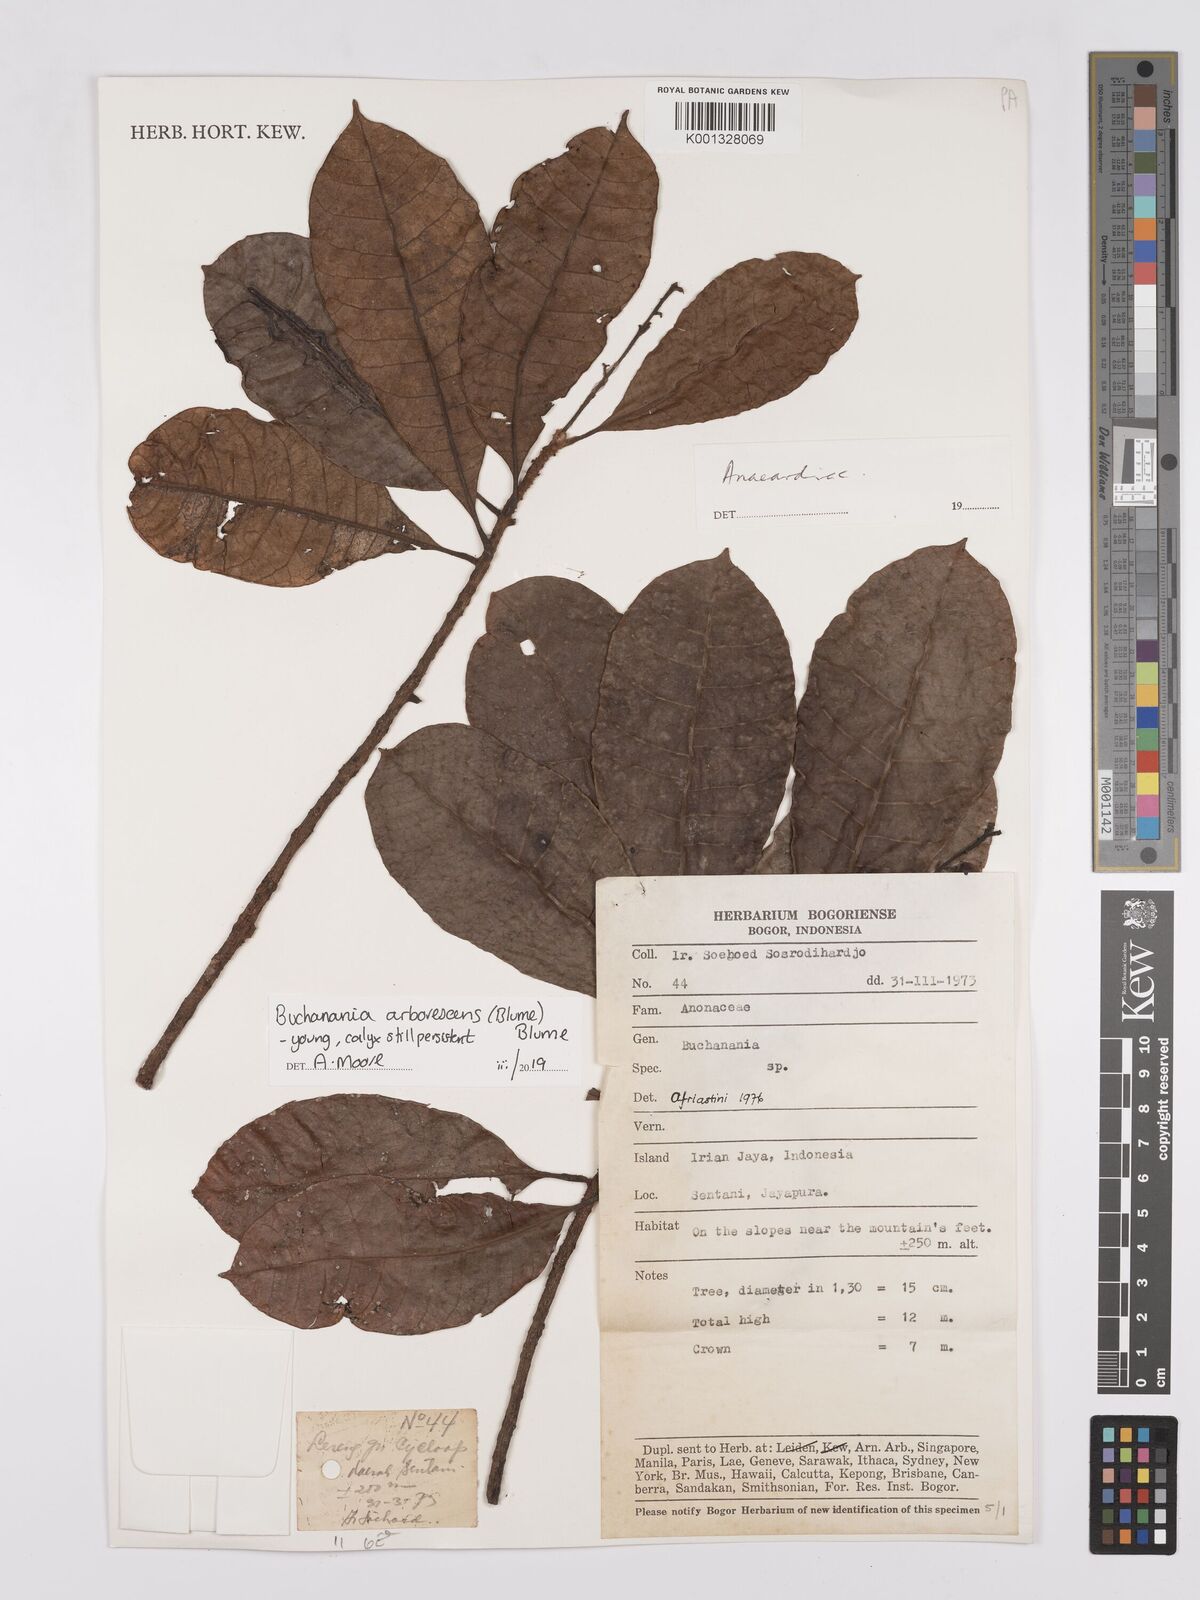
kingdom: Plantae
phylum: Tracheophyta
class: Magnoliopsida
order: Sapindales
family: Anacardiaceae
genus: Buchanania
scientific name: Buchanania arborescens
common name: Sparrow’s mango
